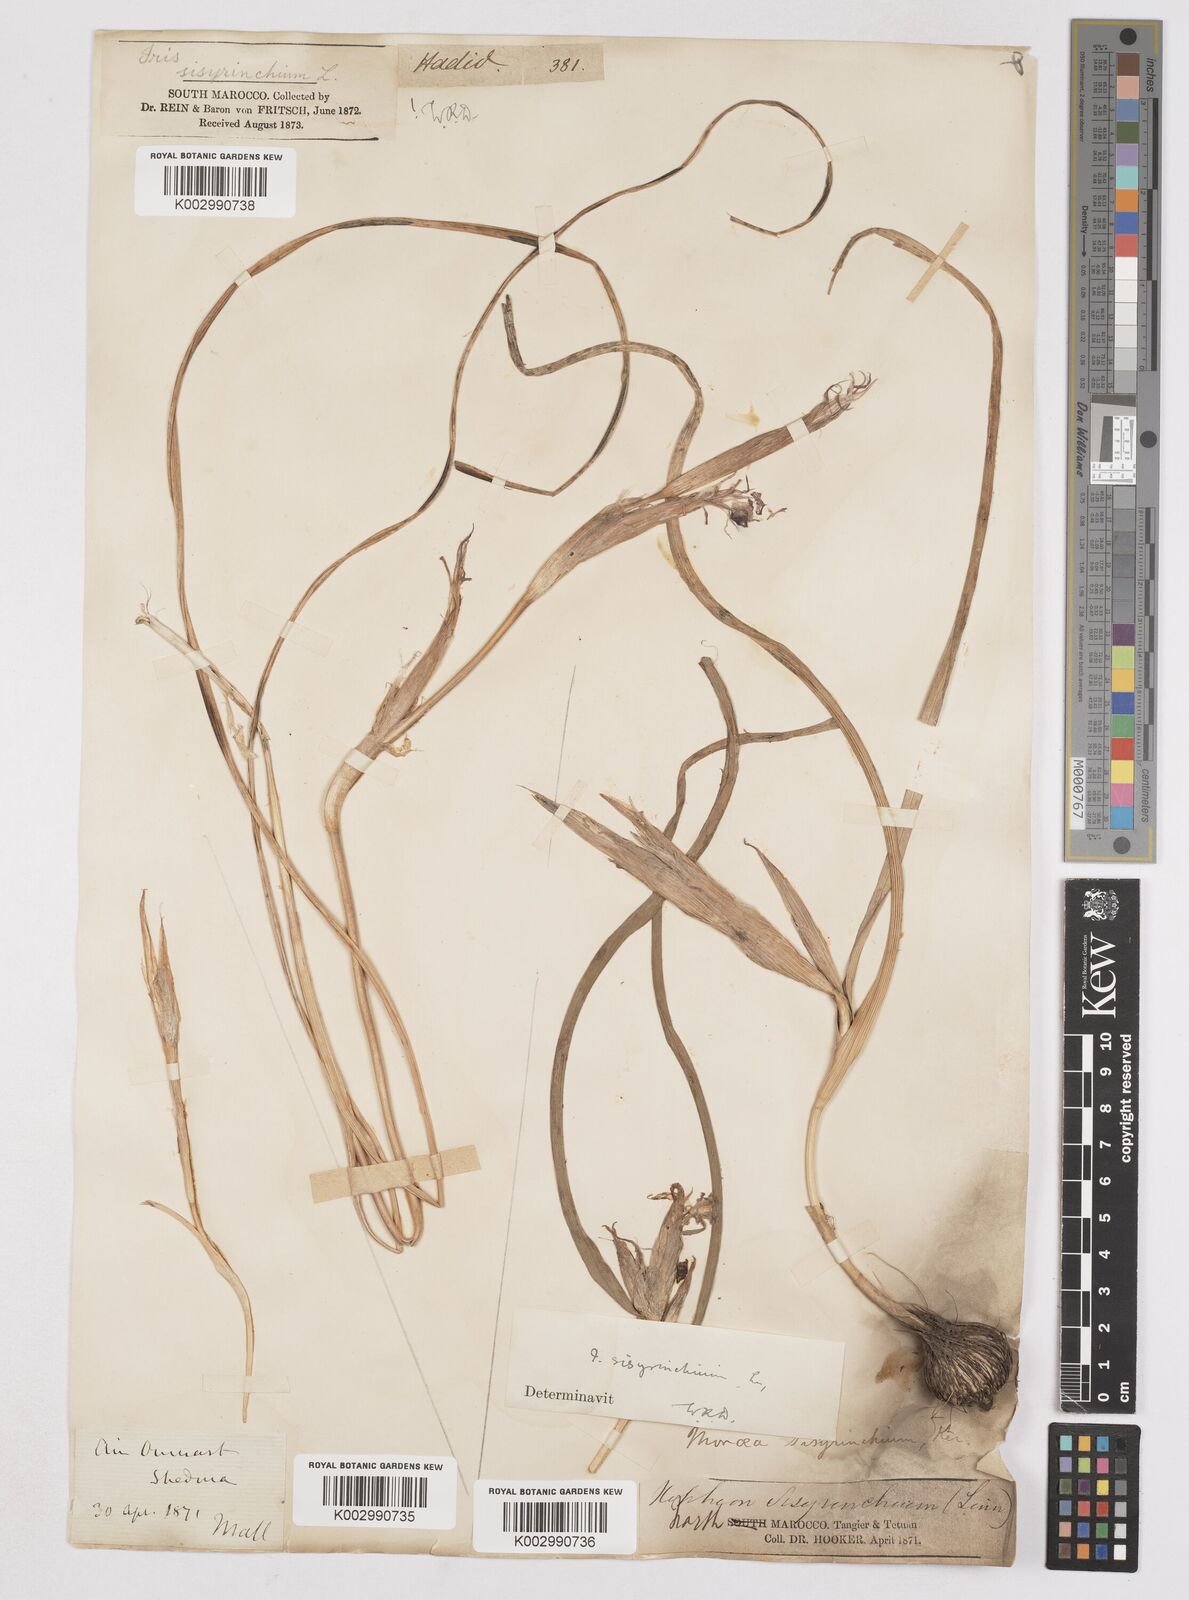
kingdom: Plantae
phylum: Tracheophyta
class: Liliopsida
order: Asparagales
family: Iridaceae
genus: Moraea
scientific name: Moraea sisyrinchium
